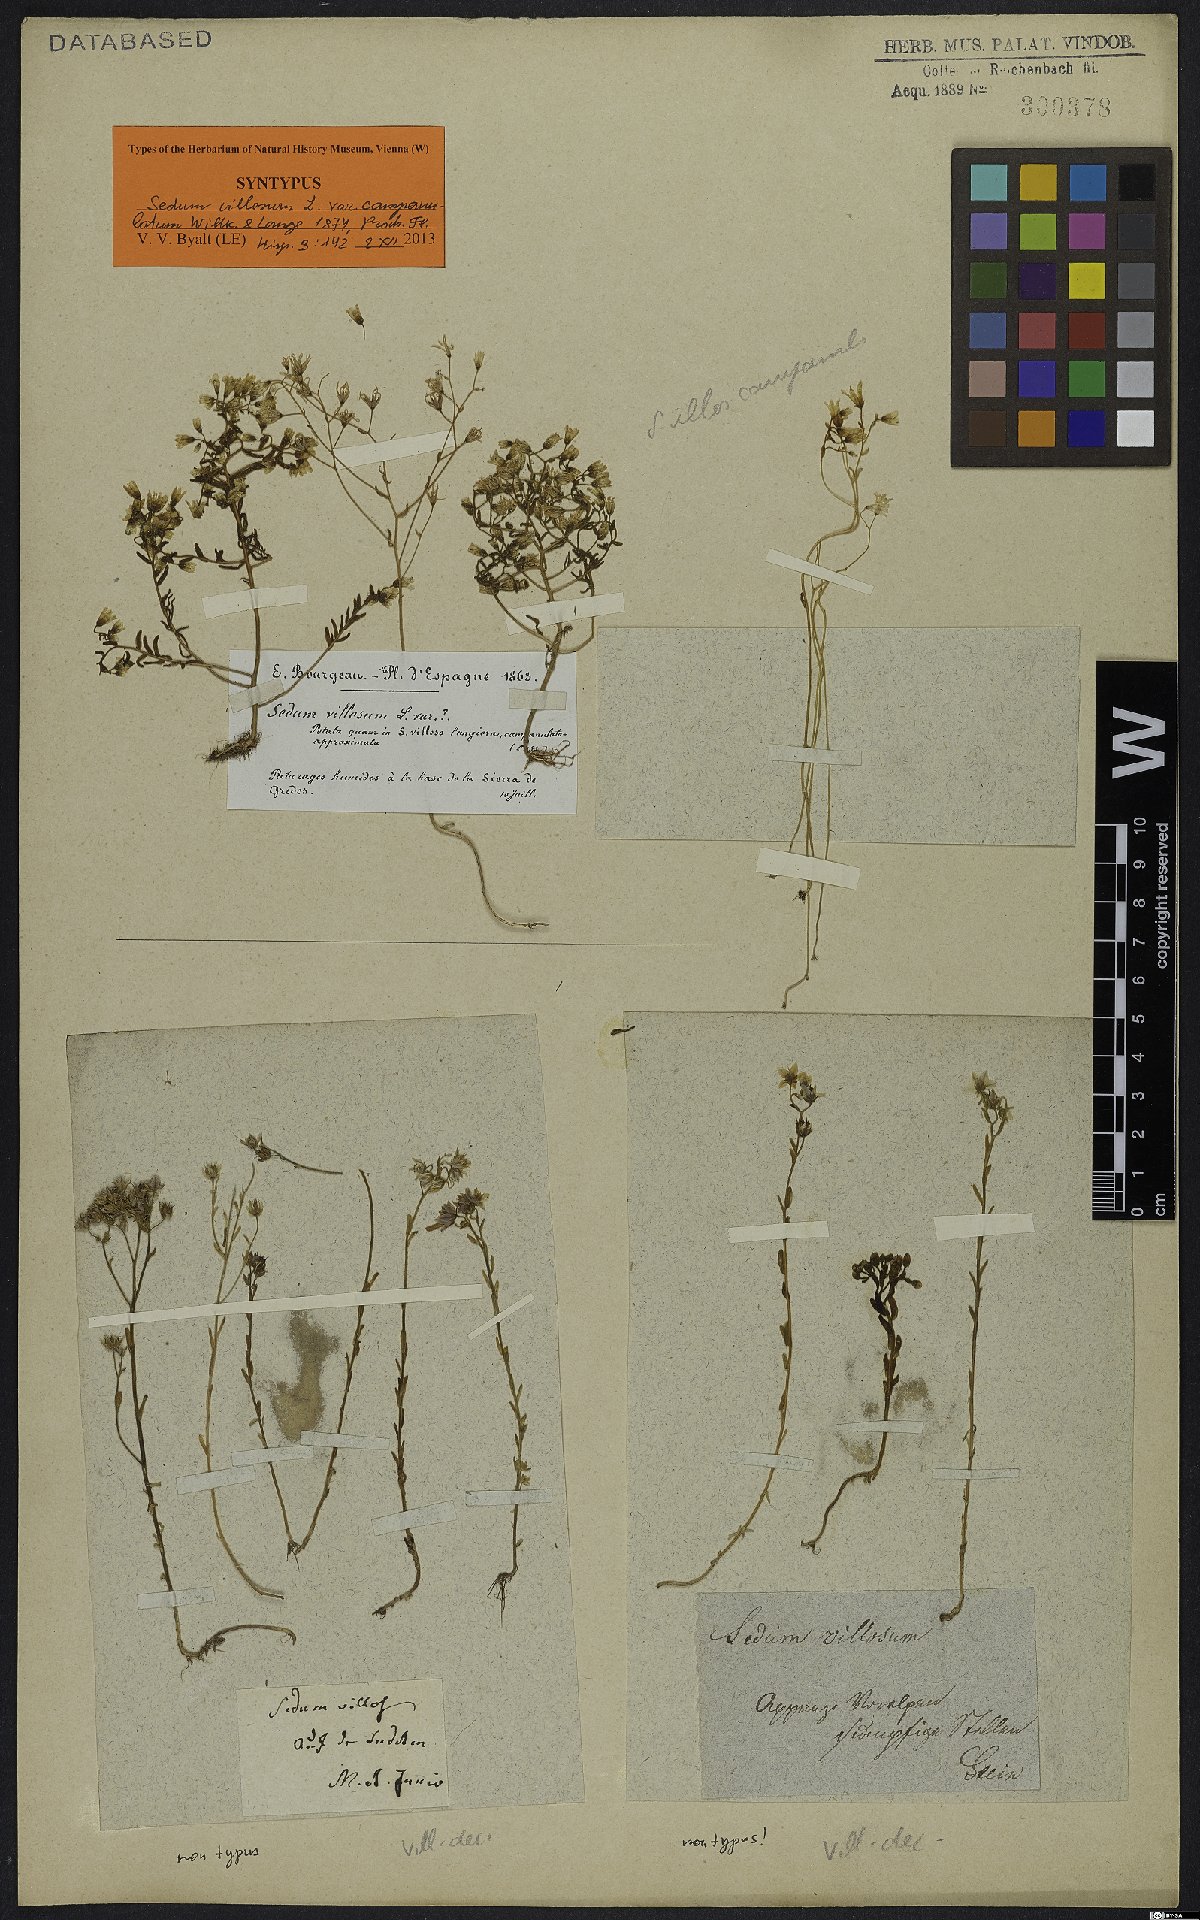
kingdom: Plantae
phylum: Tracheophyta
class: Magnoliopsida
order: Saxifragales
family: Crassulaceae
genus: Sedum
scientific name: Sedum lagascae
